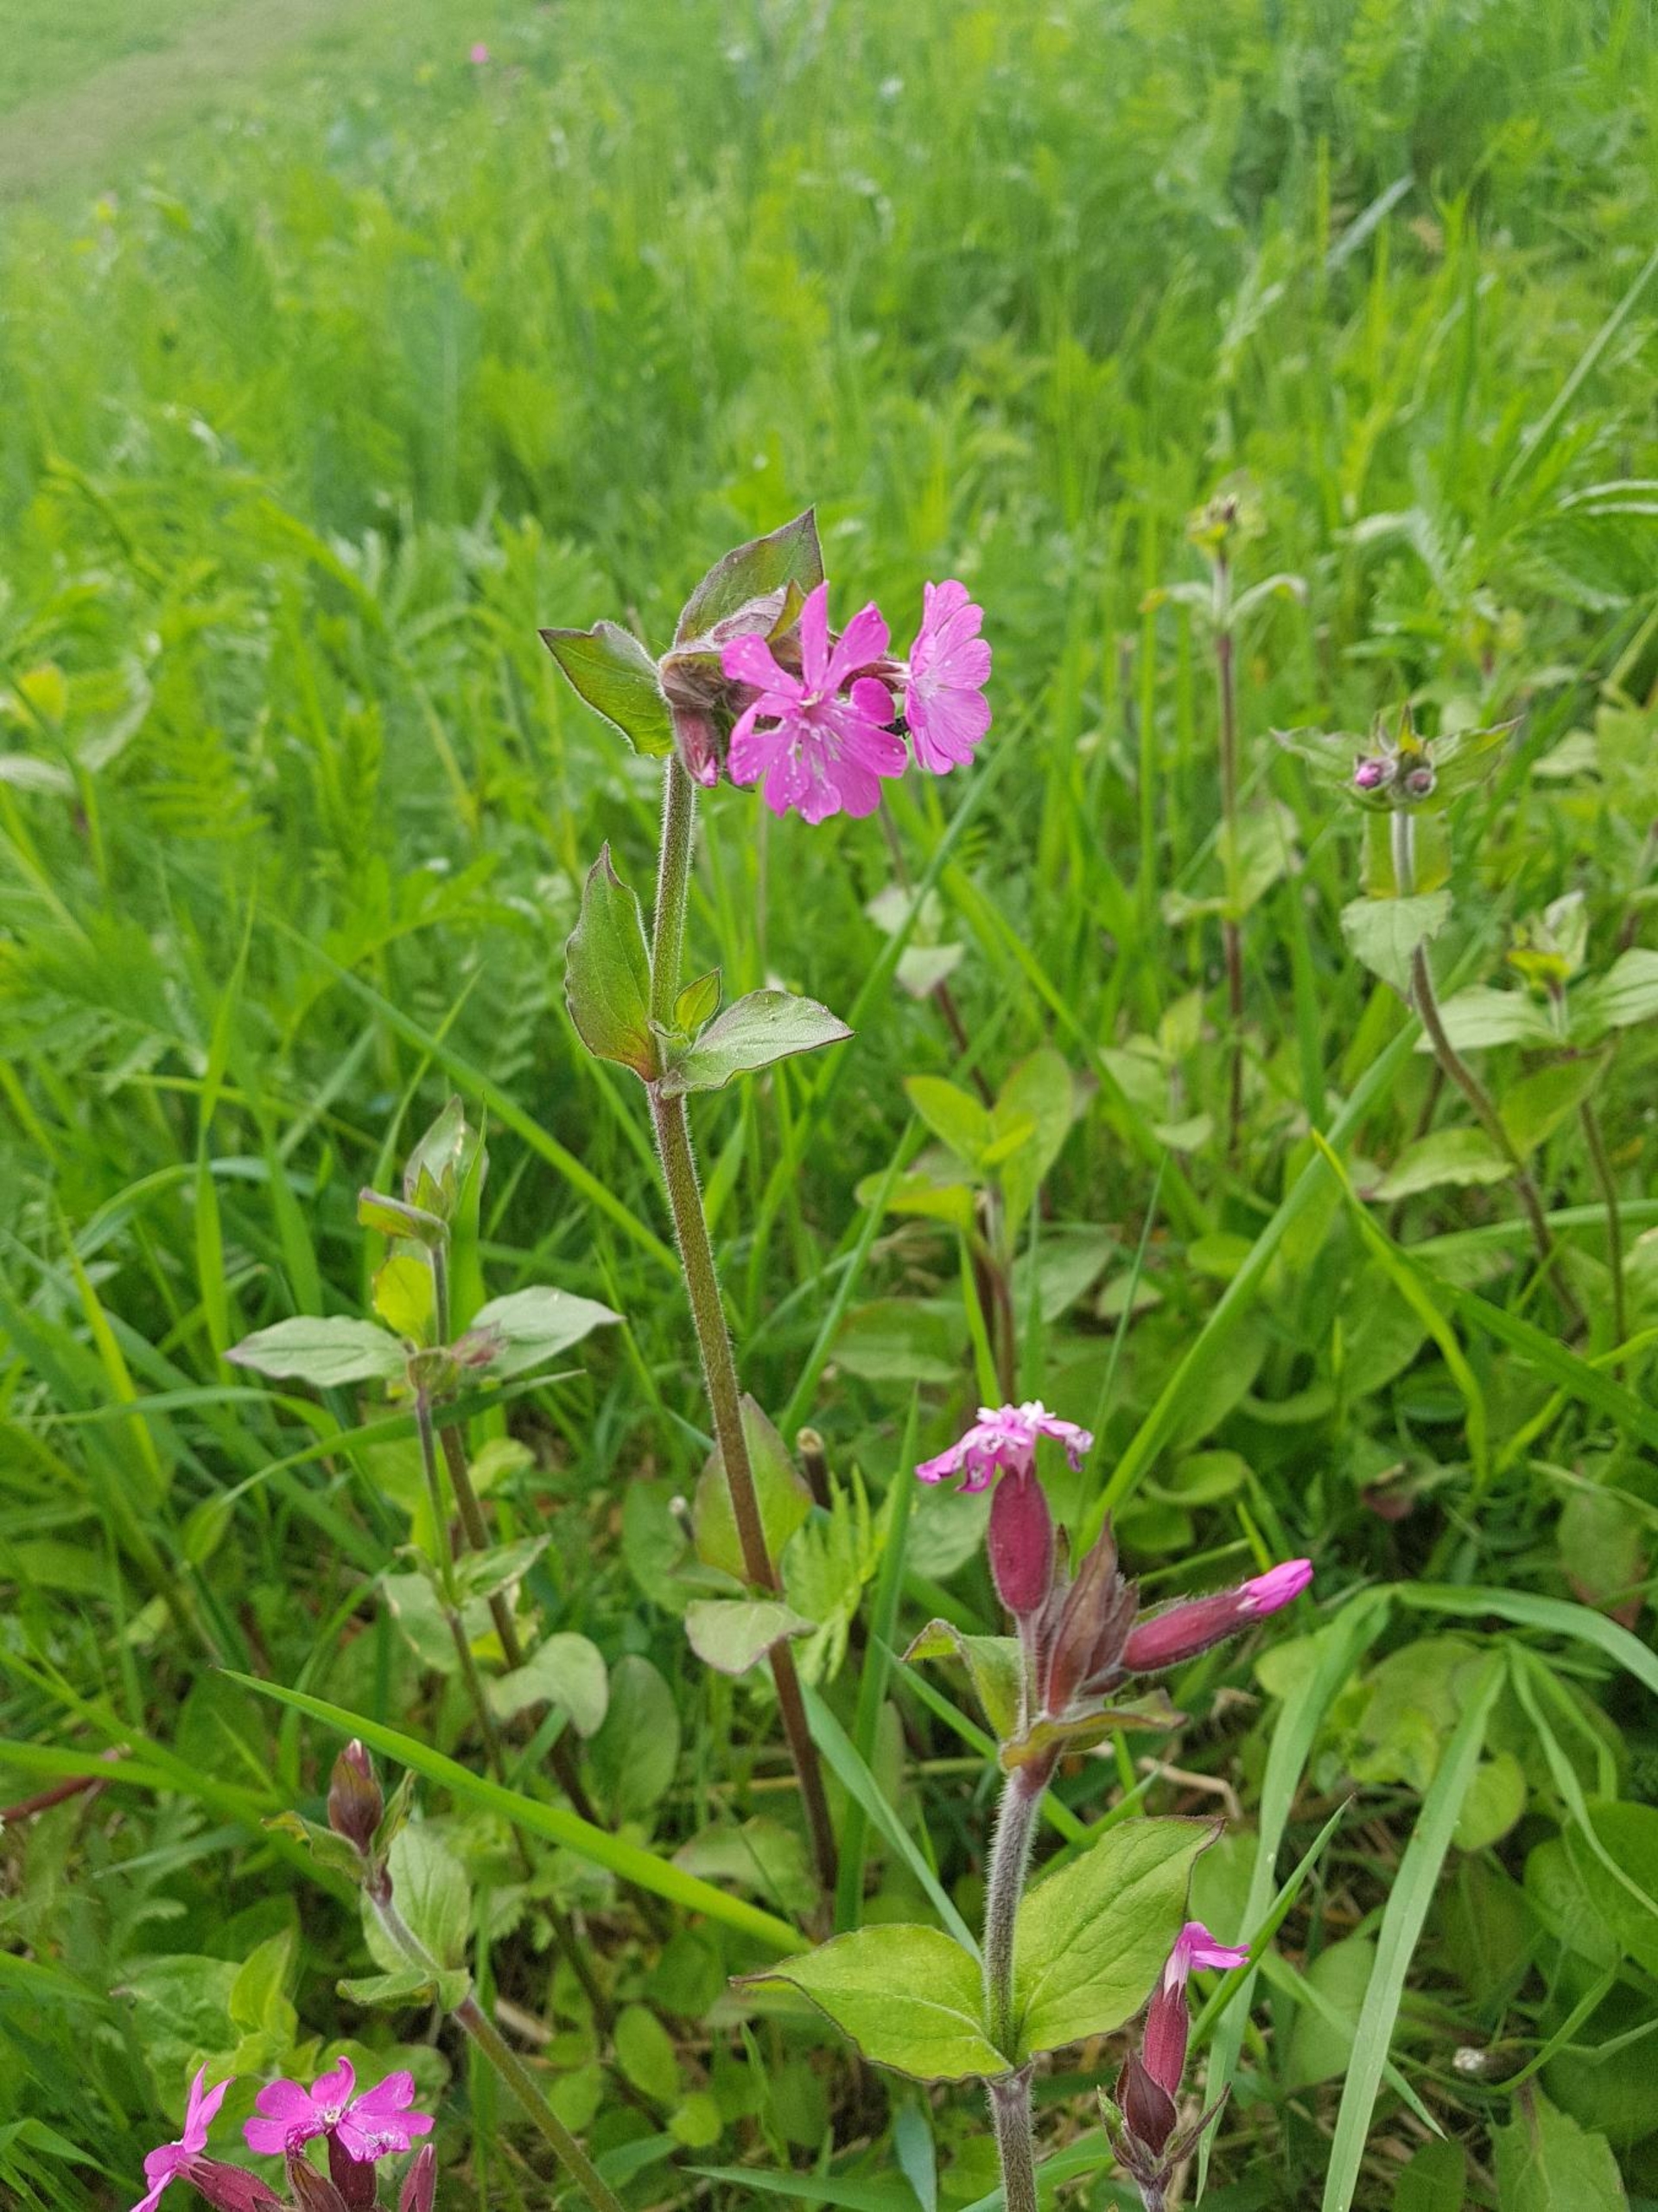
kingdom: Plantae
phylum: Tracheophyta
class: Magnoliopsida
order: Caryophyllales
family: Caryophyllaceae
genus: Silene
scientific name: Silene dioica
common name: Dagpragtstjerne
